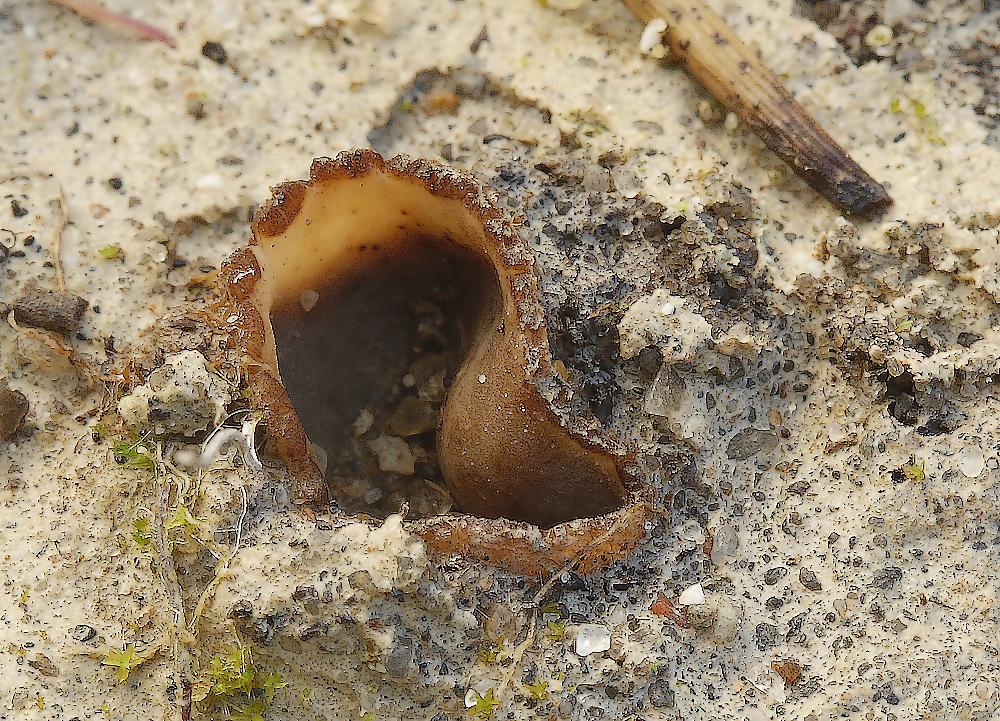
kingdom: Fungi
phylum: Ascomycota
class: Pezizomycetes
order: Pezizales
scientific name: Pezizales
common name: bægersvampordenen
